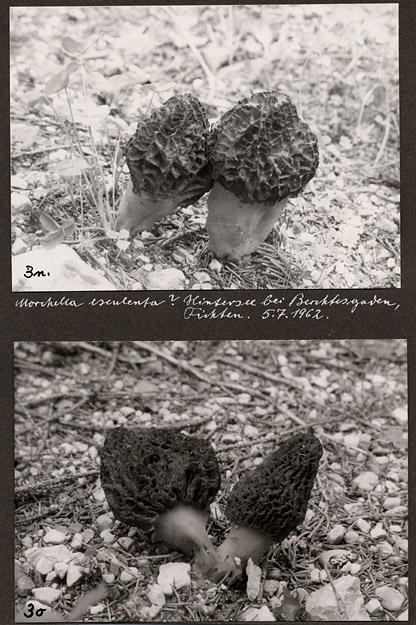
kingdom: Fungi
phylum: Ascomycota
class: Pezizomycetes
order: Pezizales
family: Morchellaceae
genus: Morchella
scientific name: Morchella esculenta
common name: Morel
